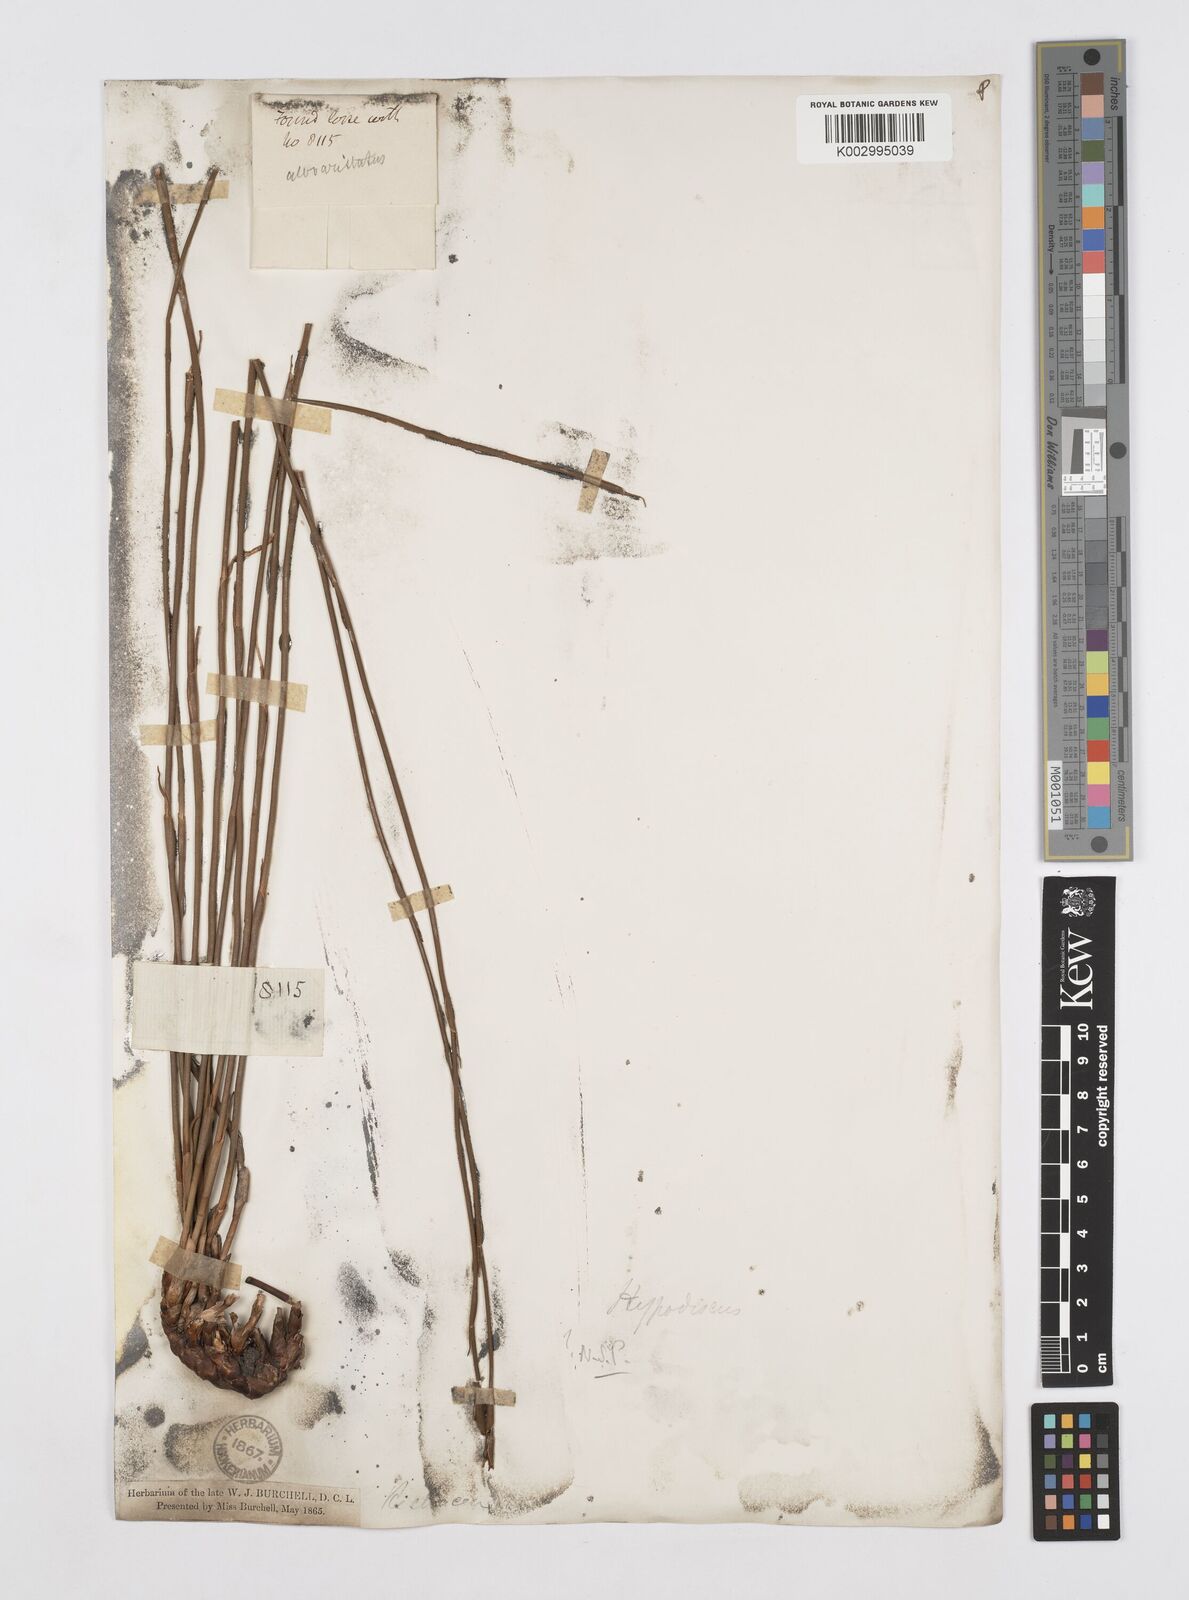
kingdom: Plantae
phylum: Tracheophyta
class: Liliopsida
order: Poales
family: Restionaceae
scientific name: Restionaceae
